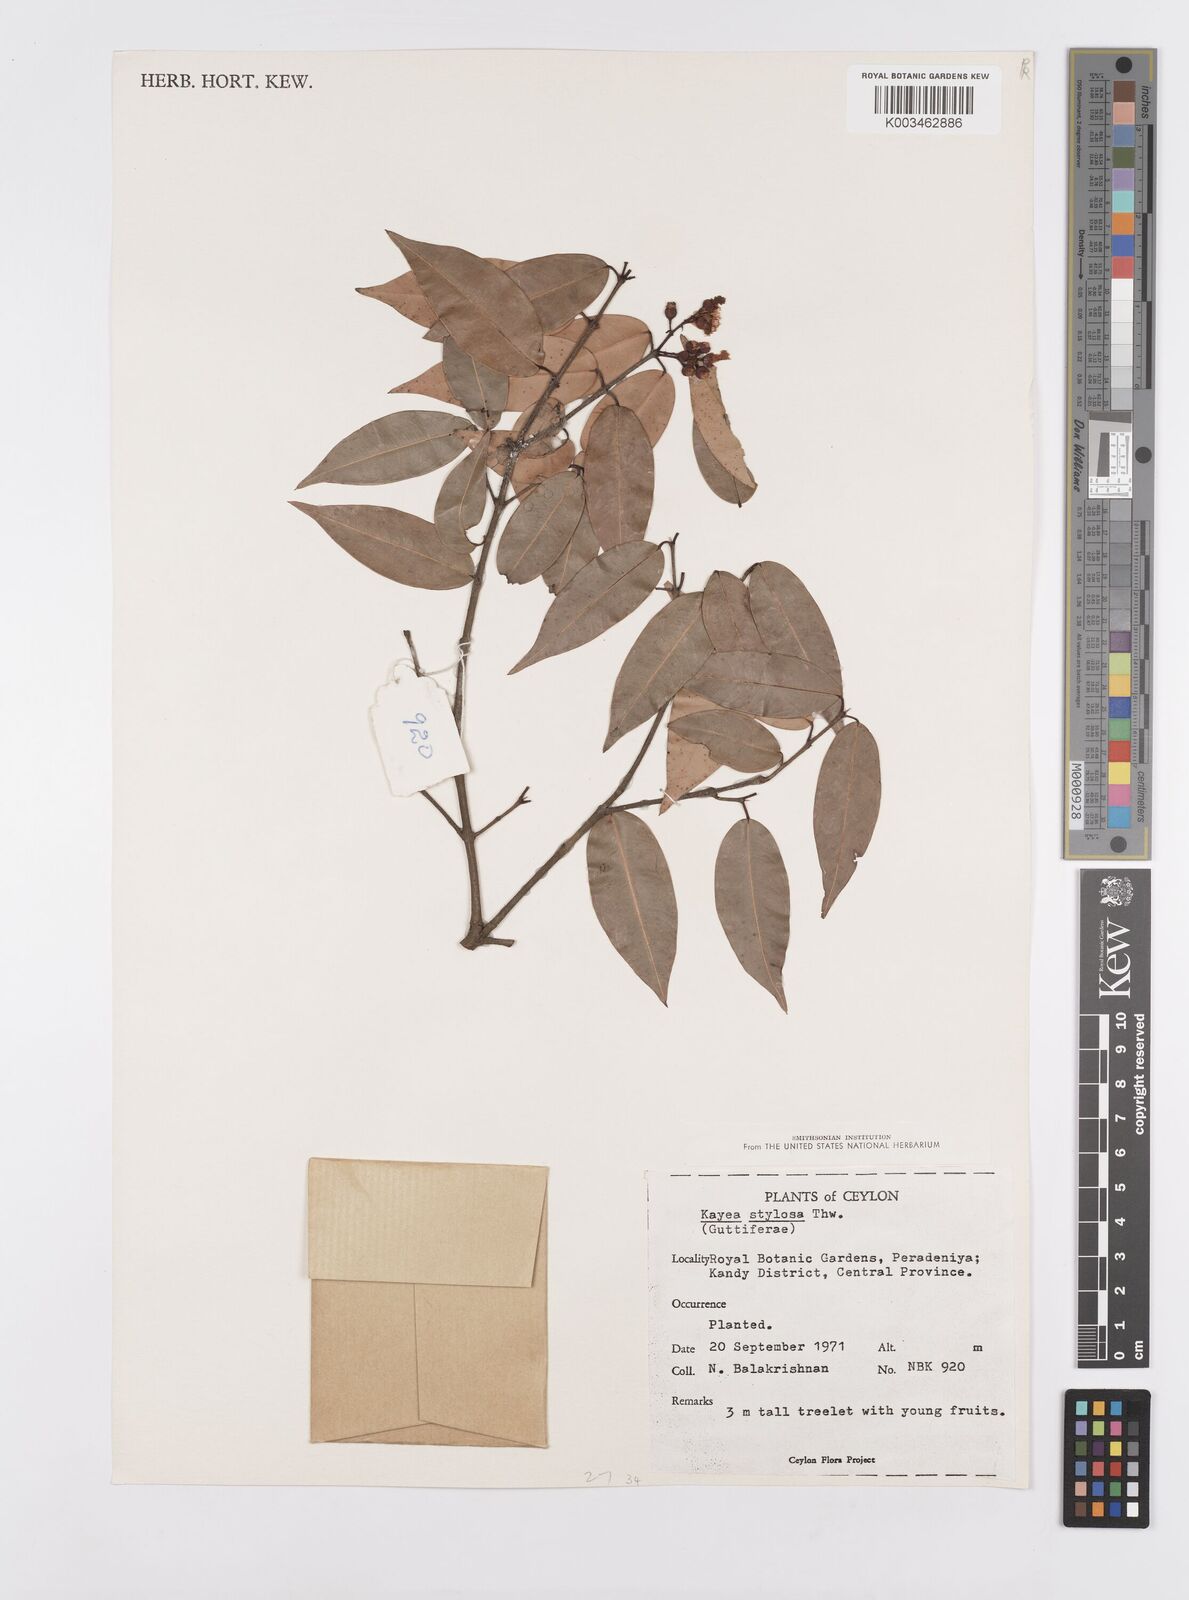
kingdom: Plantae
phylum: Tracheophyta
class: Magnoliopsida
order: Malpighiales
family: Calophyllaceae
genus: Kayea
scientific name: Kayea stylosa
